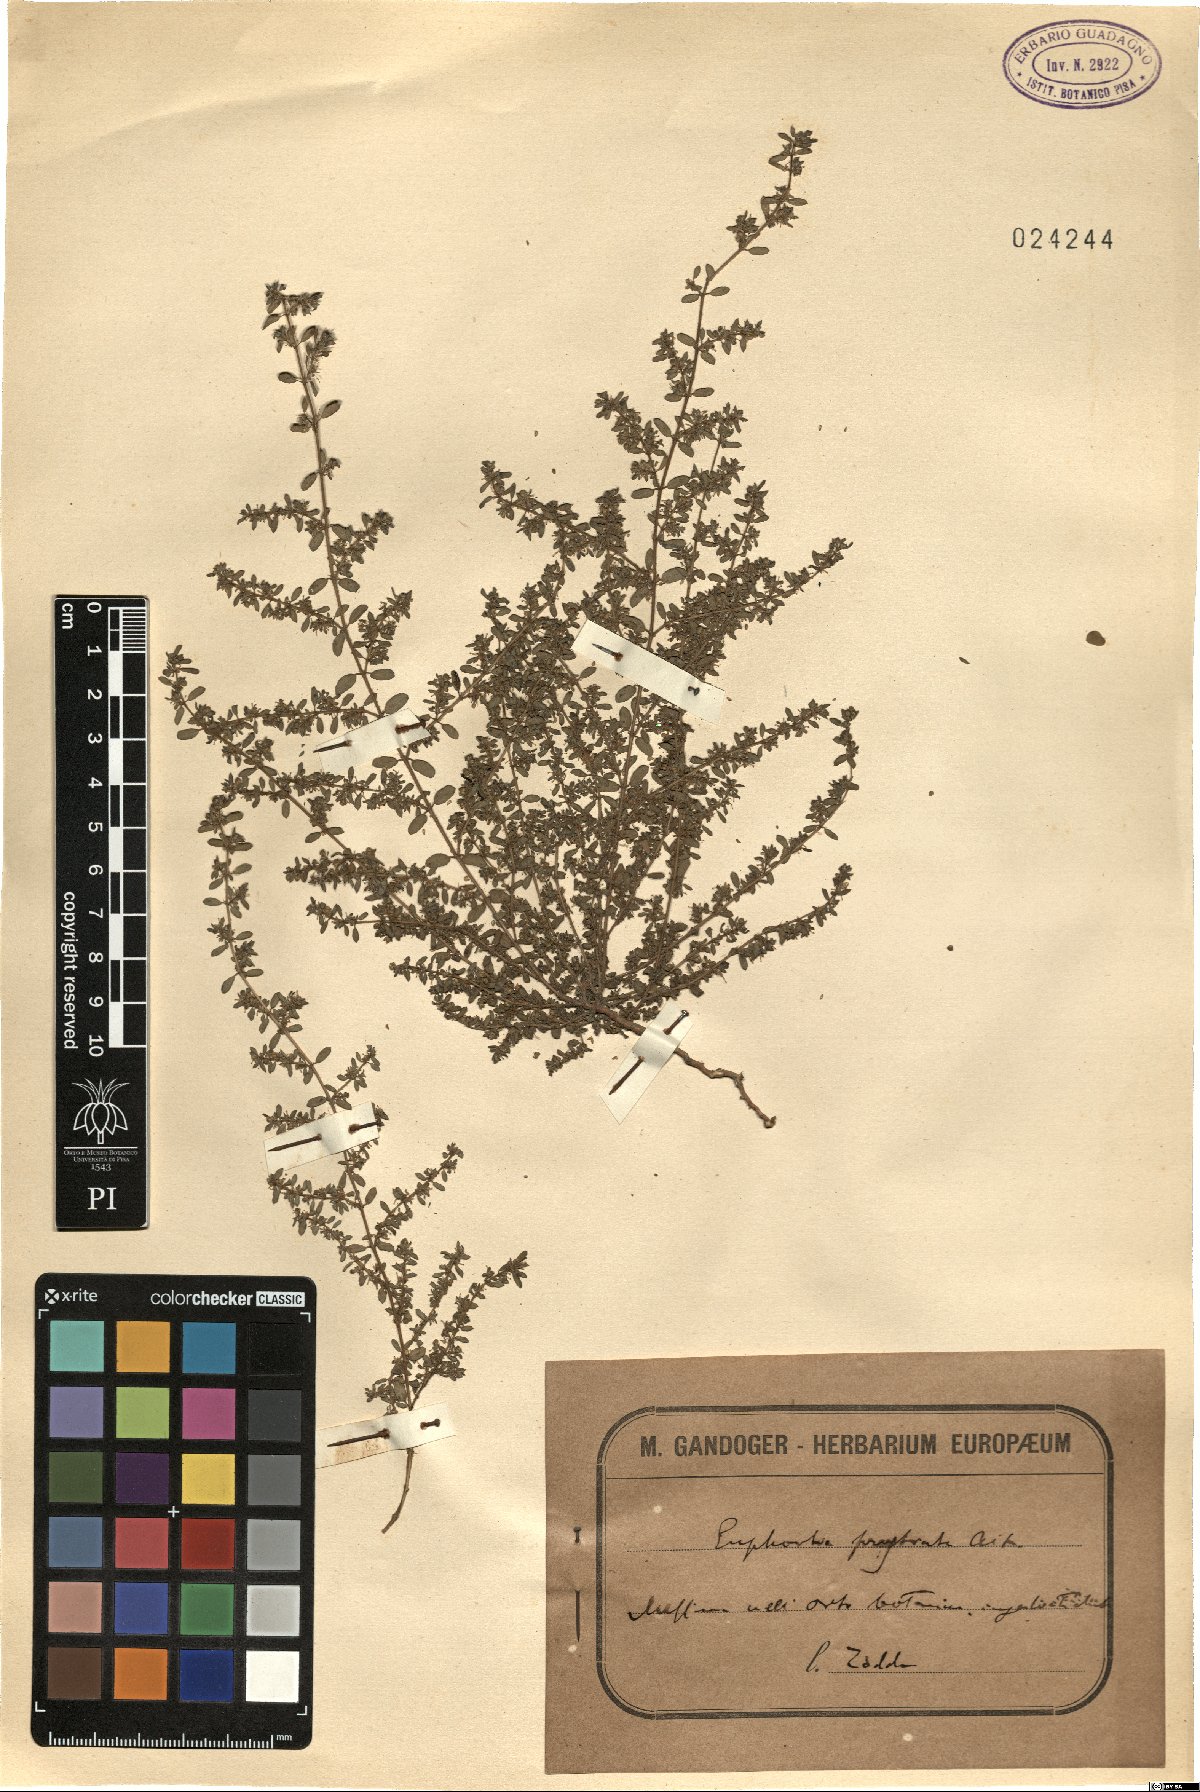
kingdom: Plantae
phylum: Tracheophyta
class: Magnoliopsida
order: Malpighiales
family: Euphorbiaceae
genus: Euphorbia
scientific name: Euphorbia prostrata
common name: Prostrate sandmat
